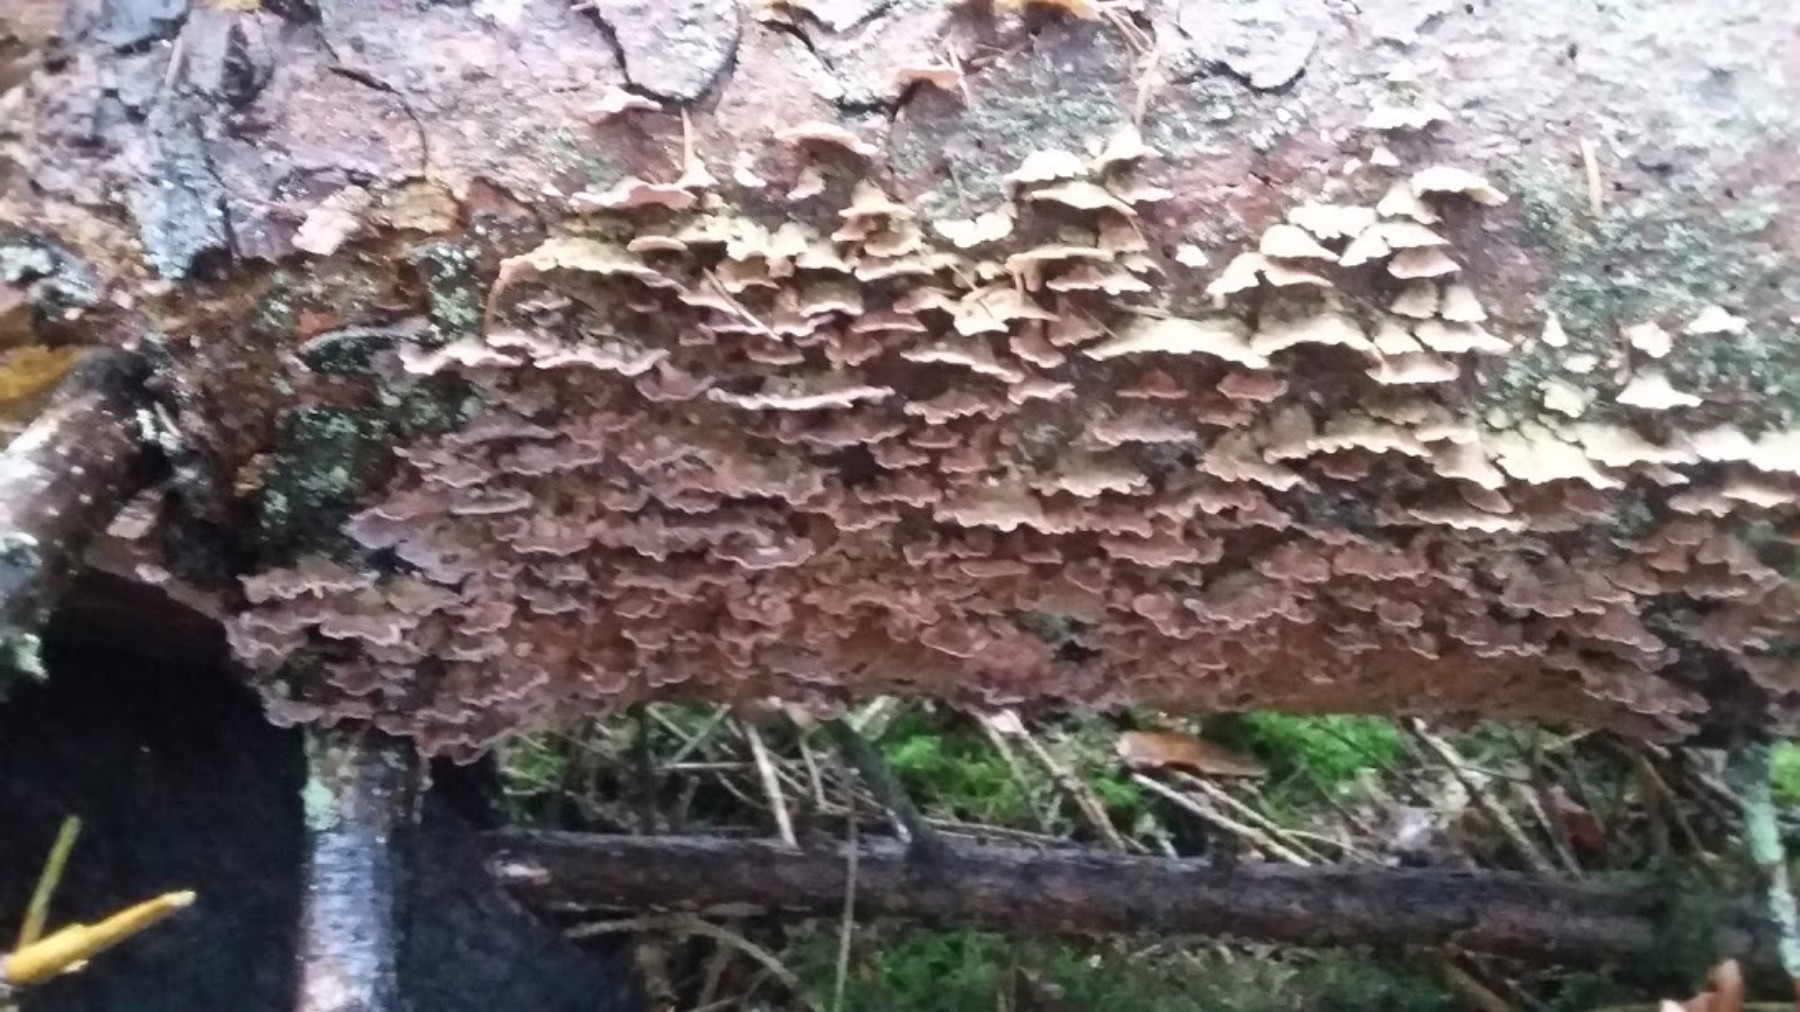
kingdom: Fungi
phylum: Basidiomycota
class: Agaricomycetes
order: Hymenochaetales
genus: Trichaptum
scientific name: Trichaptum abietinum
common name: almindelig violporesvamp
